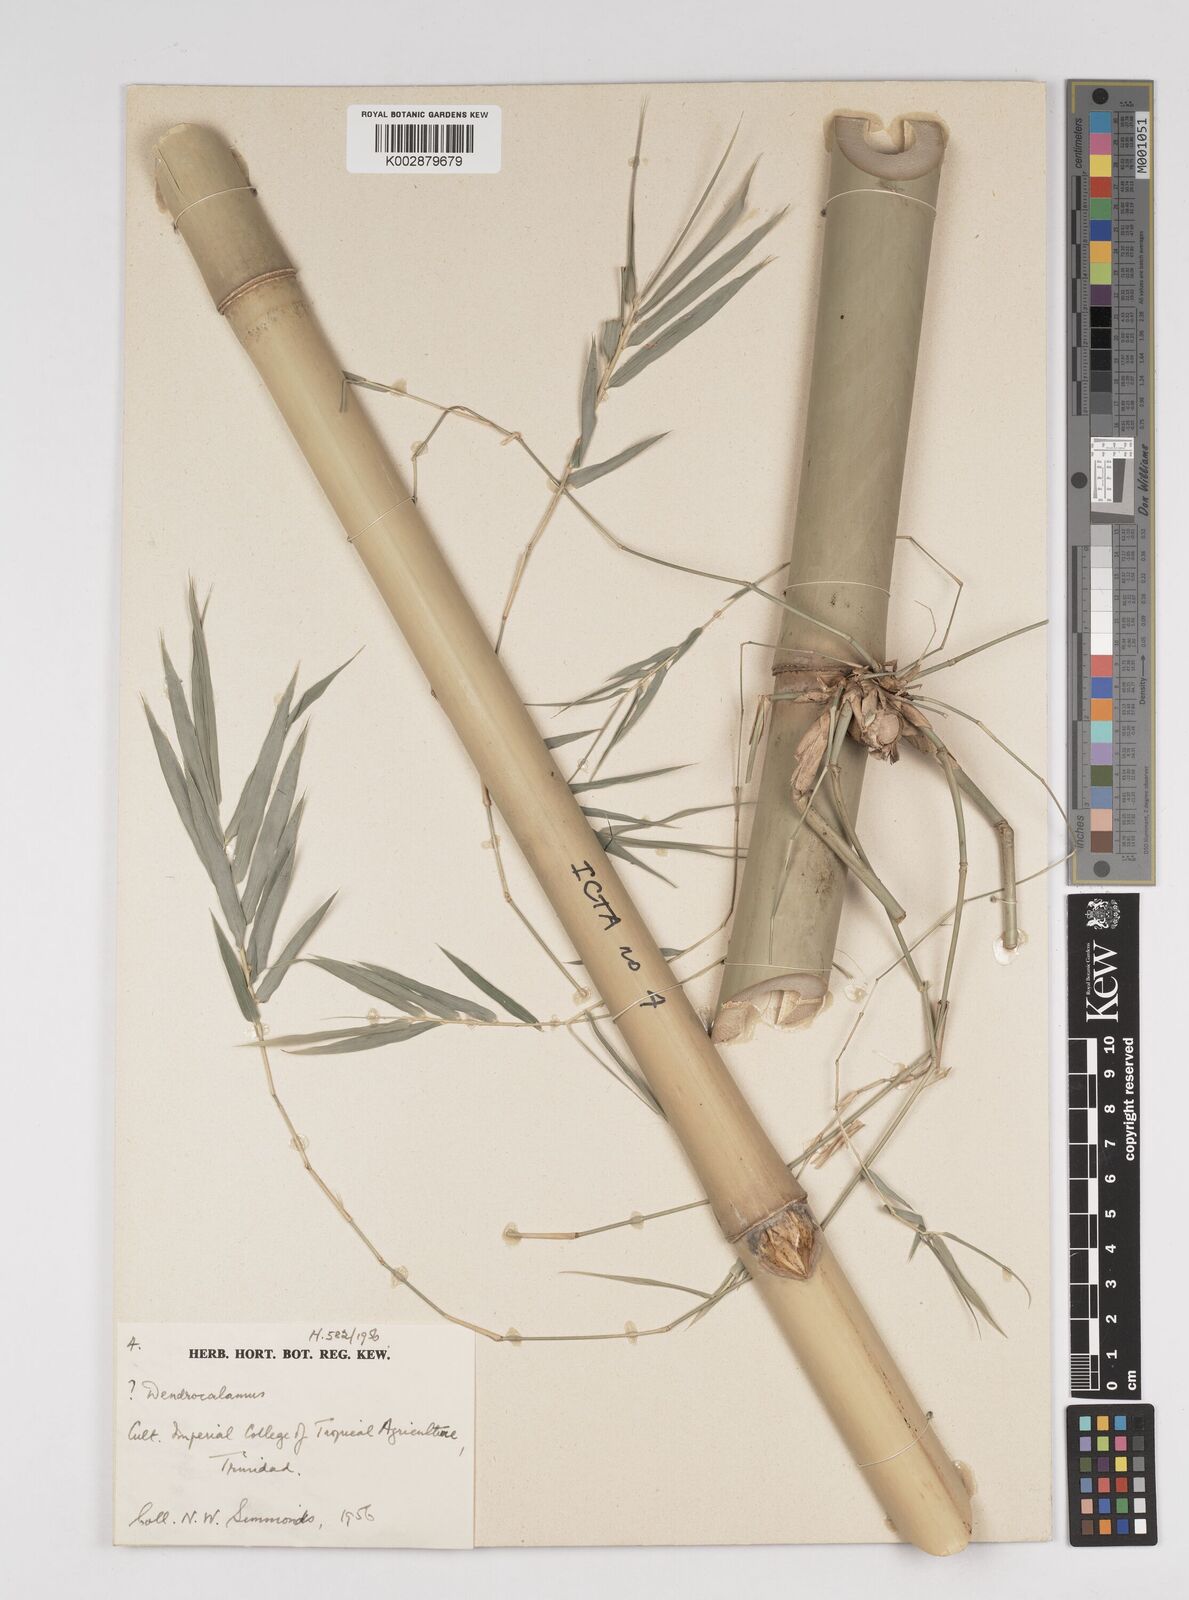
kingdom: Plantae
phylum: Tracheophyta
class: Liliopsida
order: Poales
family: Poaceae
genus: Dendrocalamus
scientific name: Dendrocalamus
